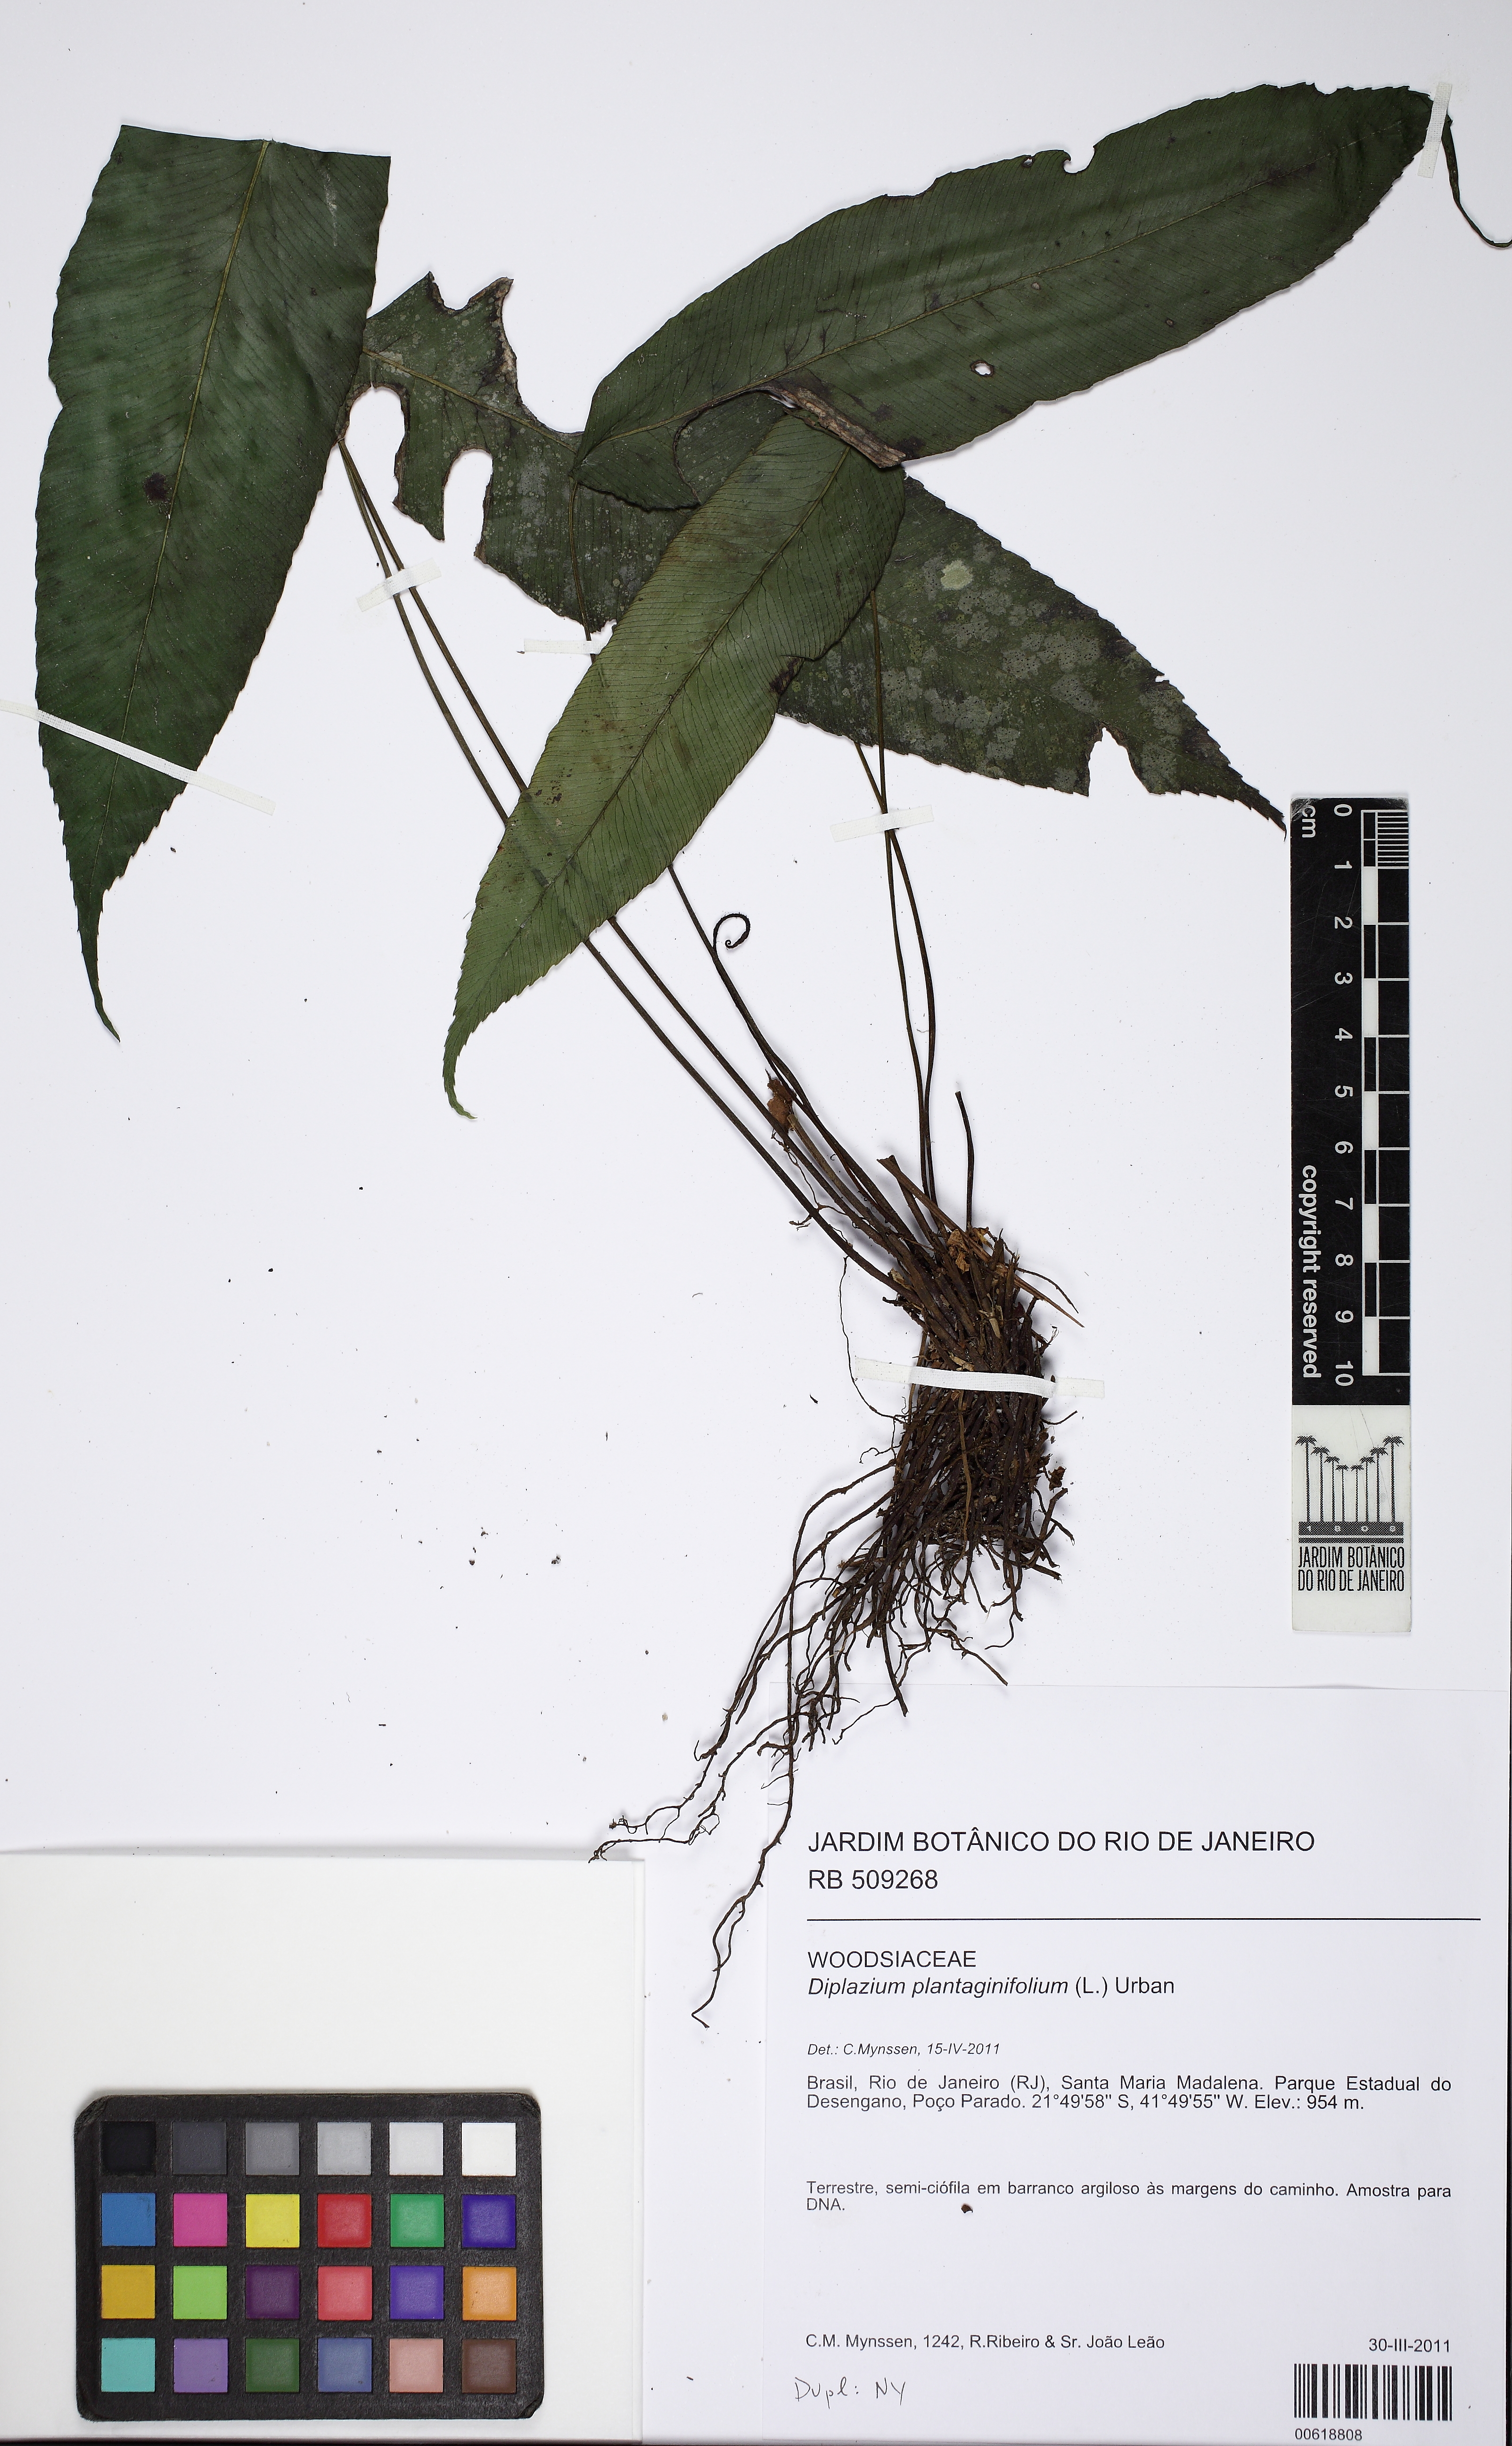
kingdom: Plantae
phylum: Tracheophyta
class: Polypodiopsida
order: Polypodiales
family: Athyriaceae
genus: Diplazium
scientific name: Diplazium plantaginifolium
